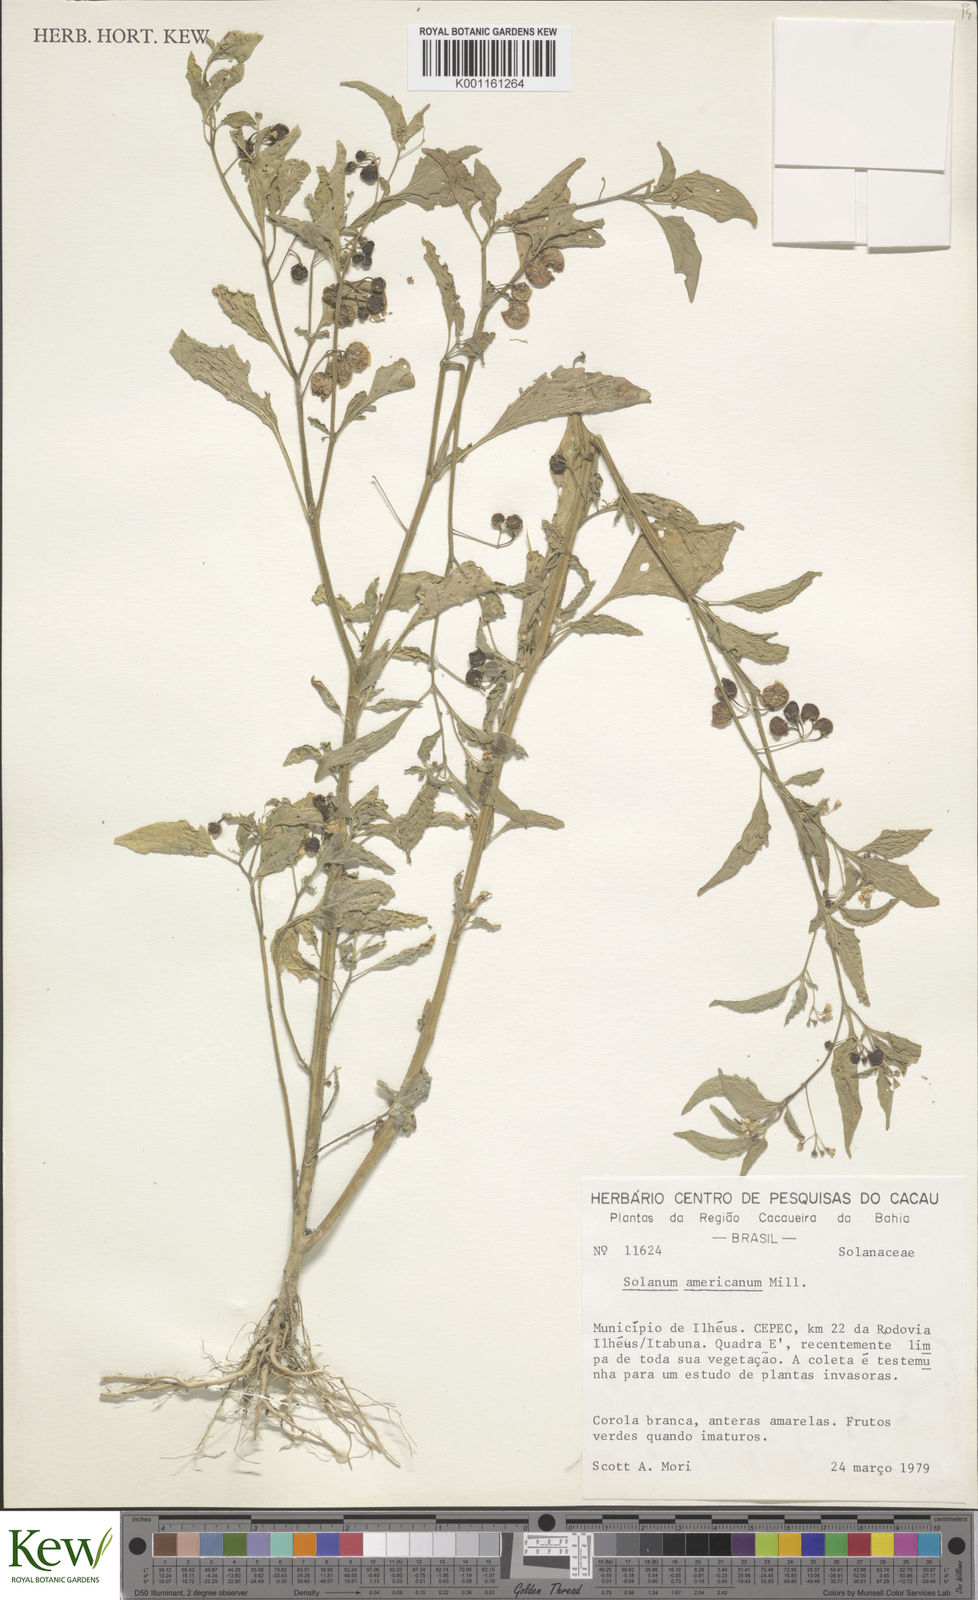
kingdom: Plantae
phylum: Tracheophyta
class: Magnoliopsida
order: Solanales
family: Solanaceae
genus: Solanum
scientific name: Solanum americanum
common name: American black nightshade
